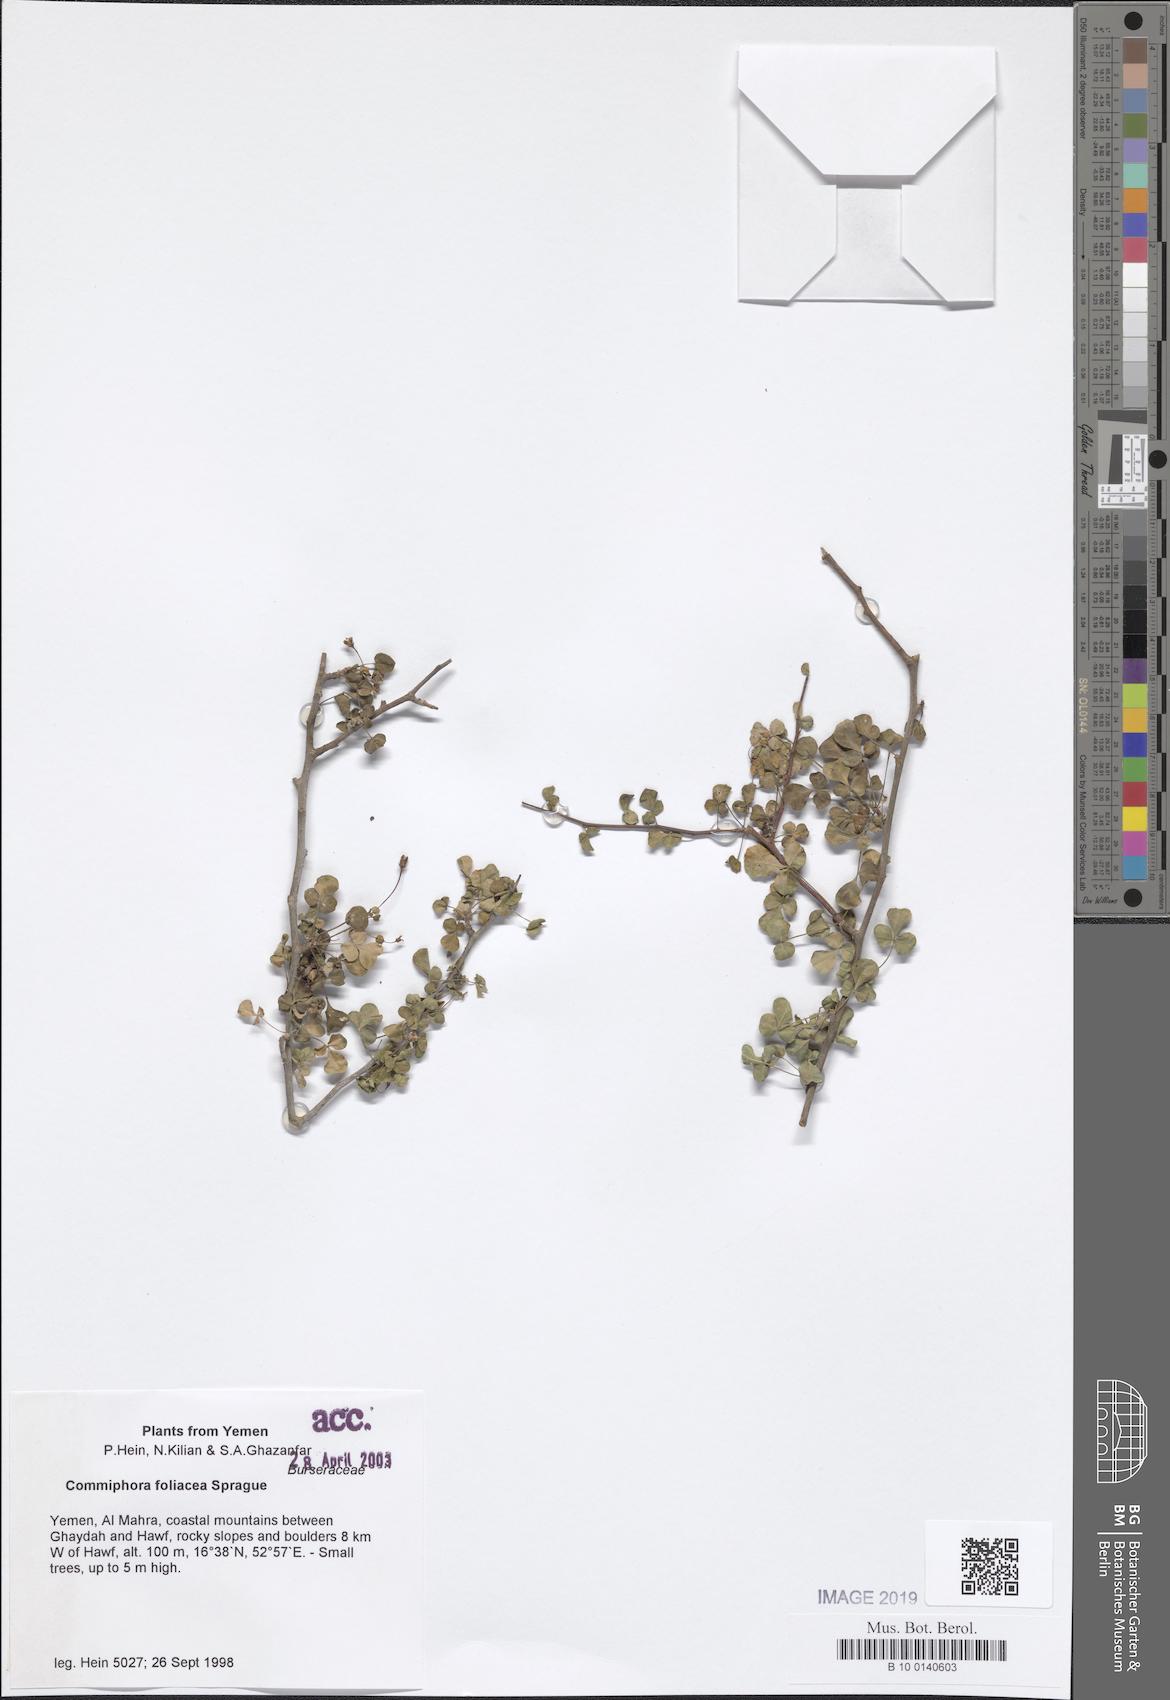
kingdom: Plantae
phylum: Tracheophyta
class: Magnoliopsida
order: Sapindales
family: Burseraceae
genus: Commiphora
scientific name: Commiphora foliacea
